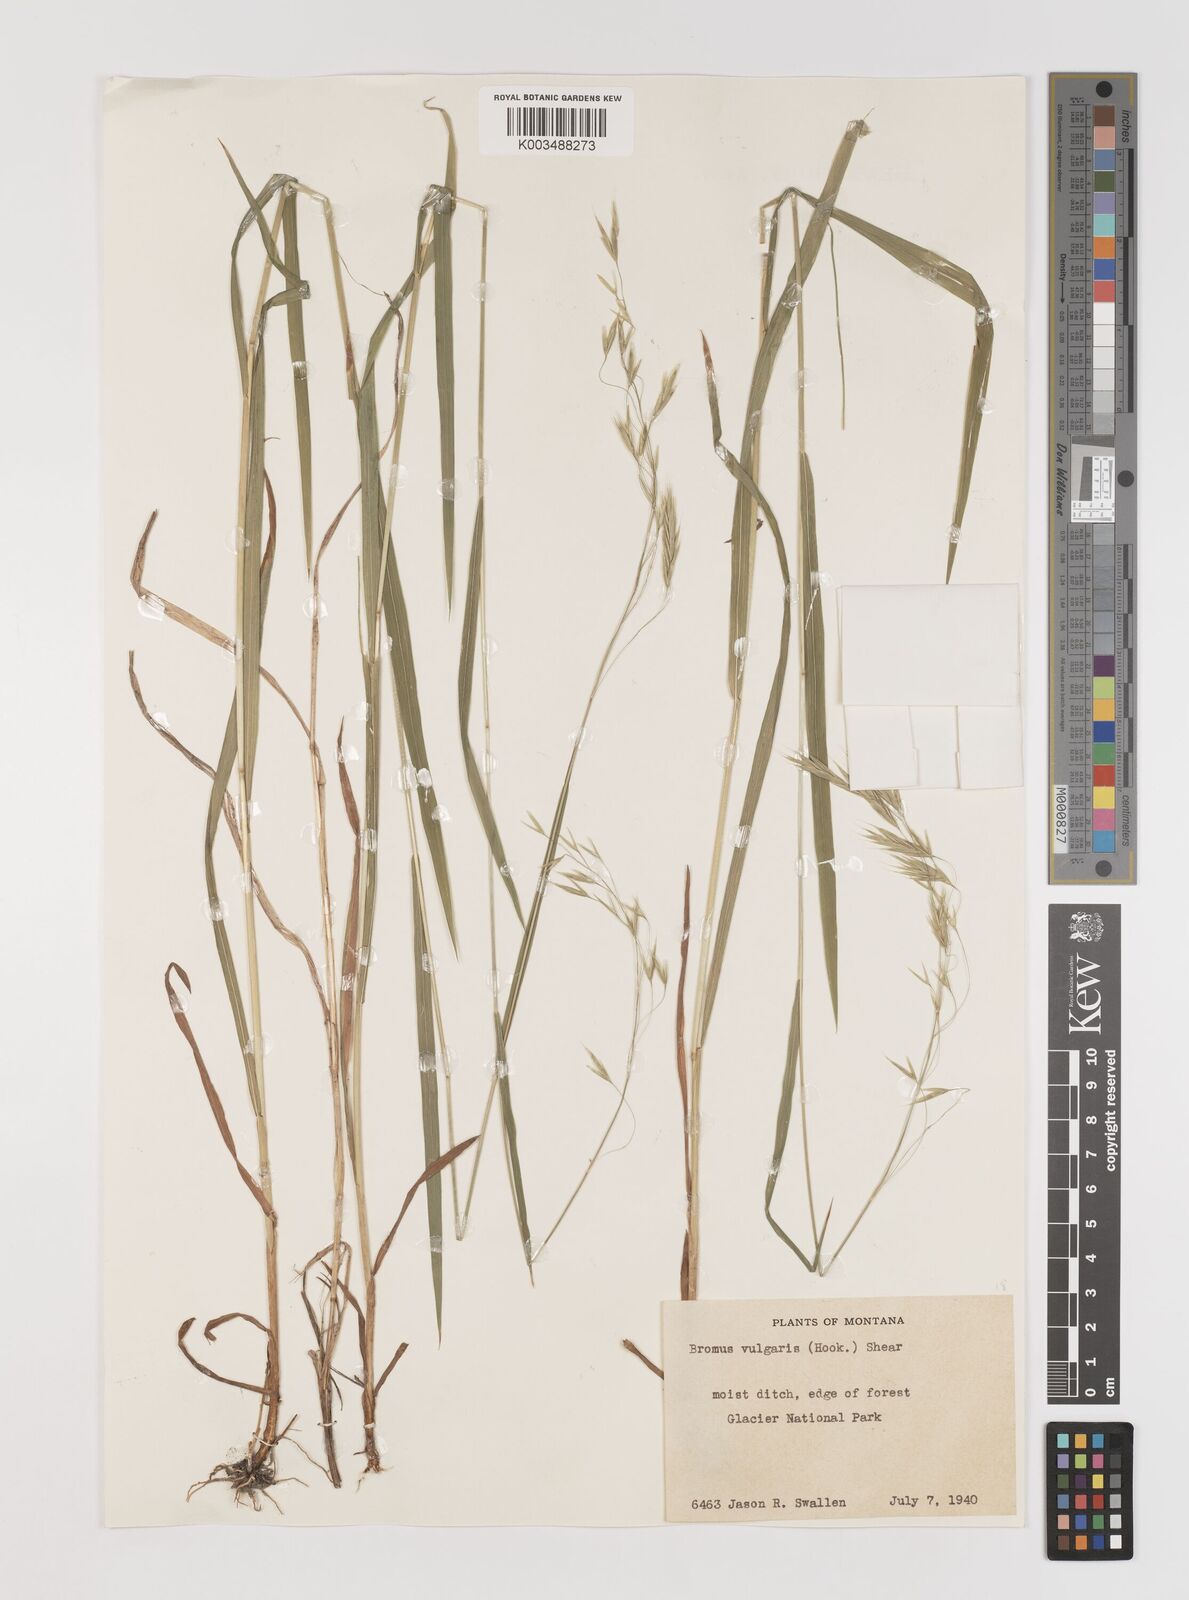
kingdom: Plantae
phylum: Tracheophyta
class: Liliopsida
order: Poales
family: Poaceae
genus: Bromus
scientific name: Bromus vulgaris
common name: Columbia brome
